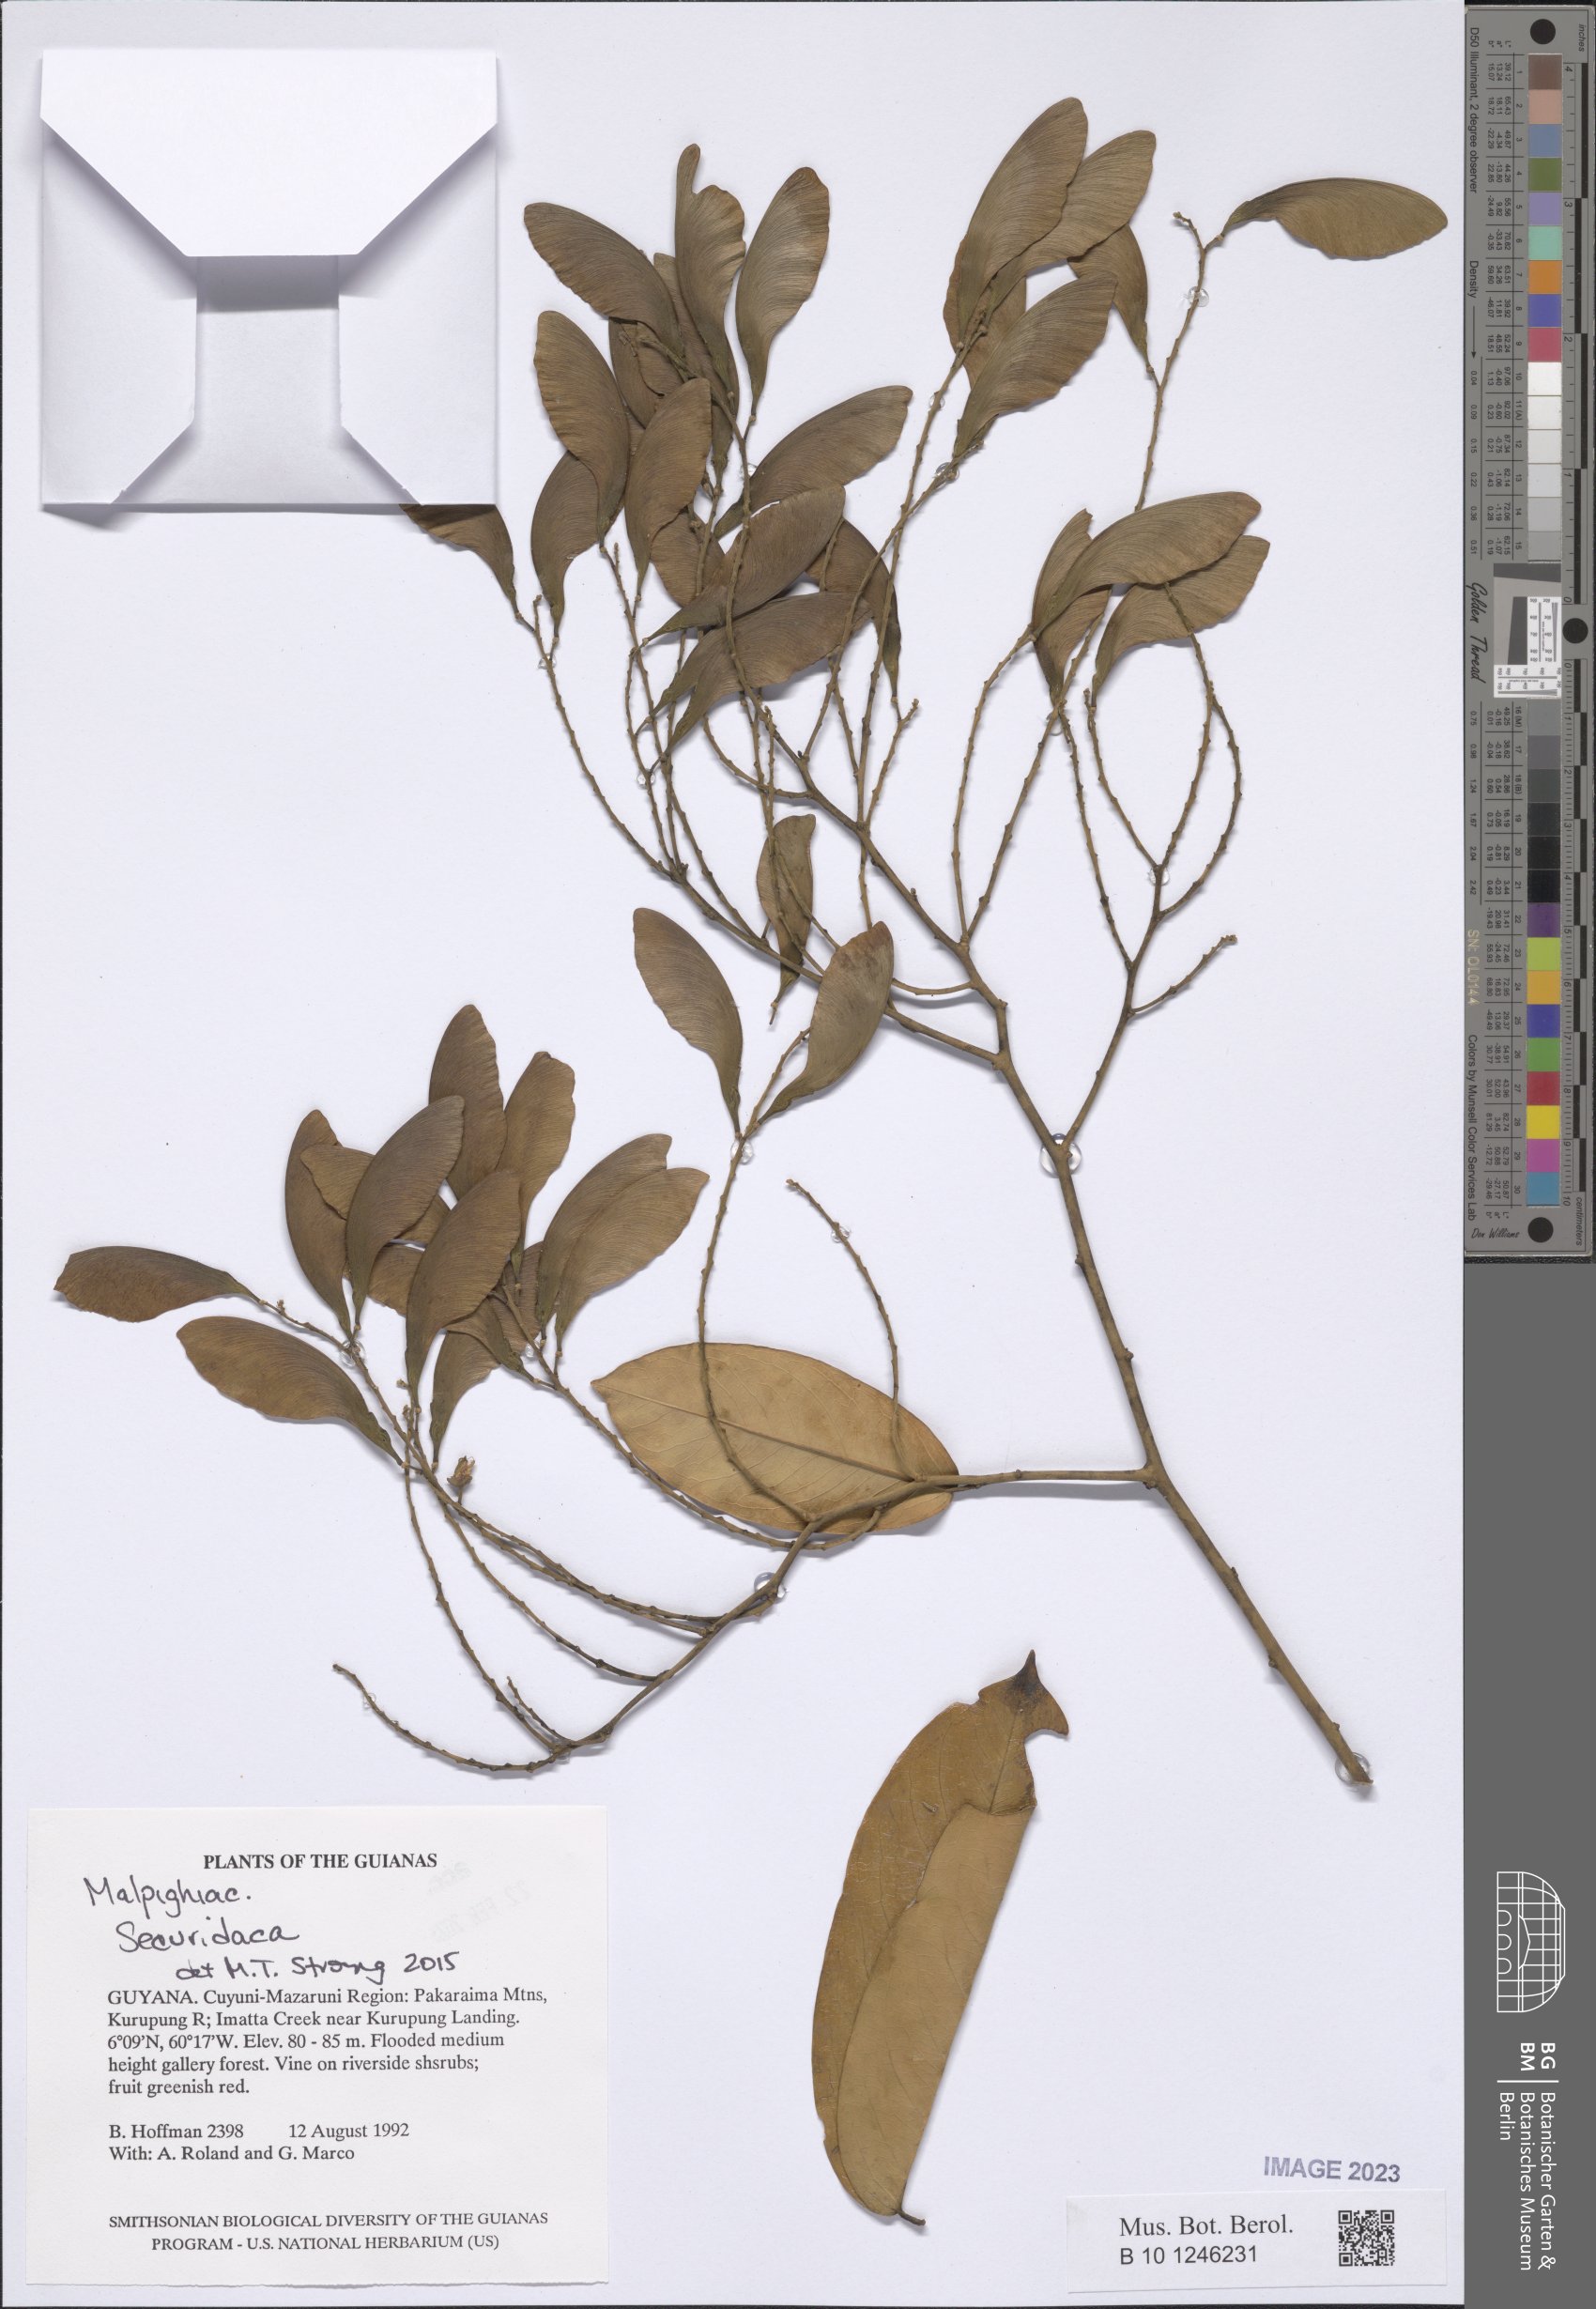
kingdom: Plantae
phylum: Tracheophyta
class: Magnoliopsida
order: Fabales
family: Polygalaceae
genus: Securidaca
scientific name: Securidaca
